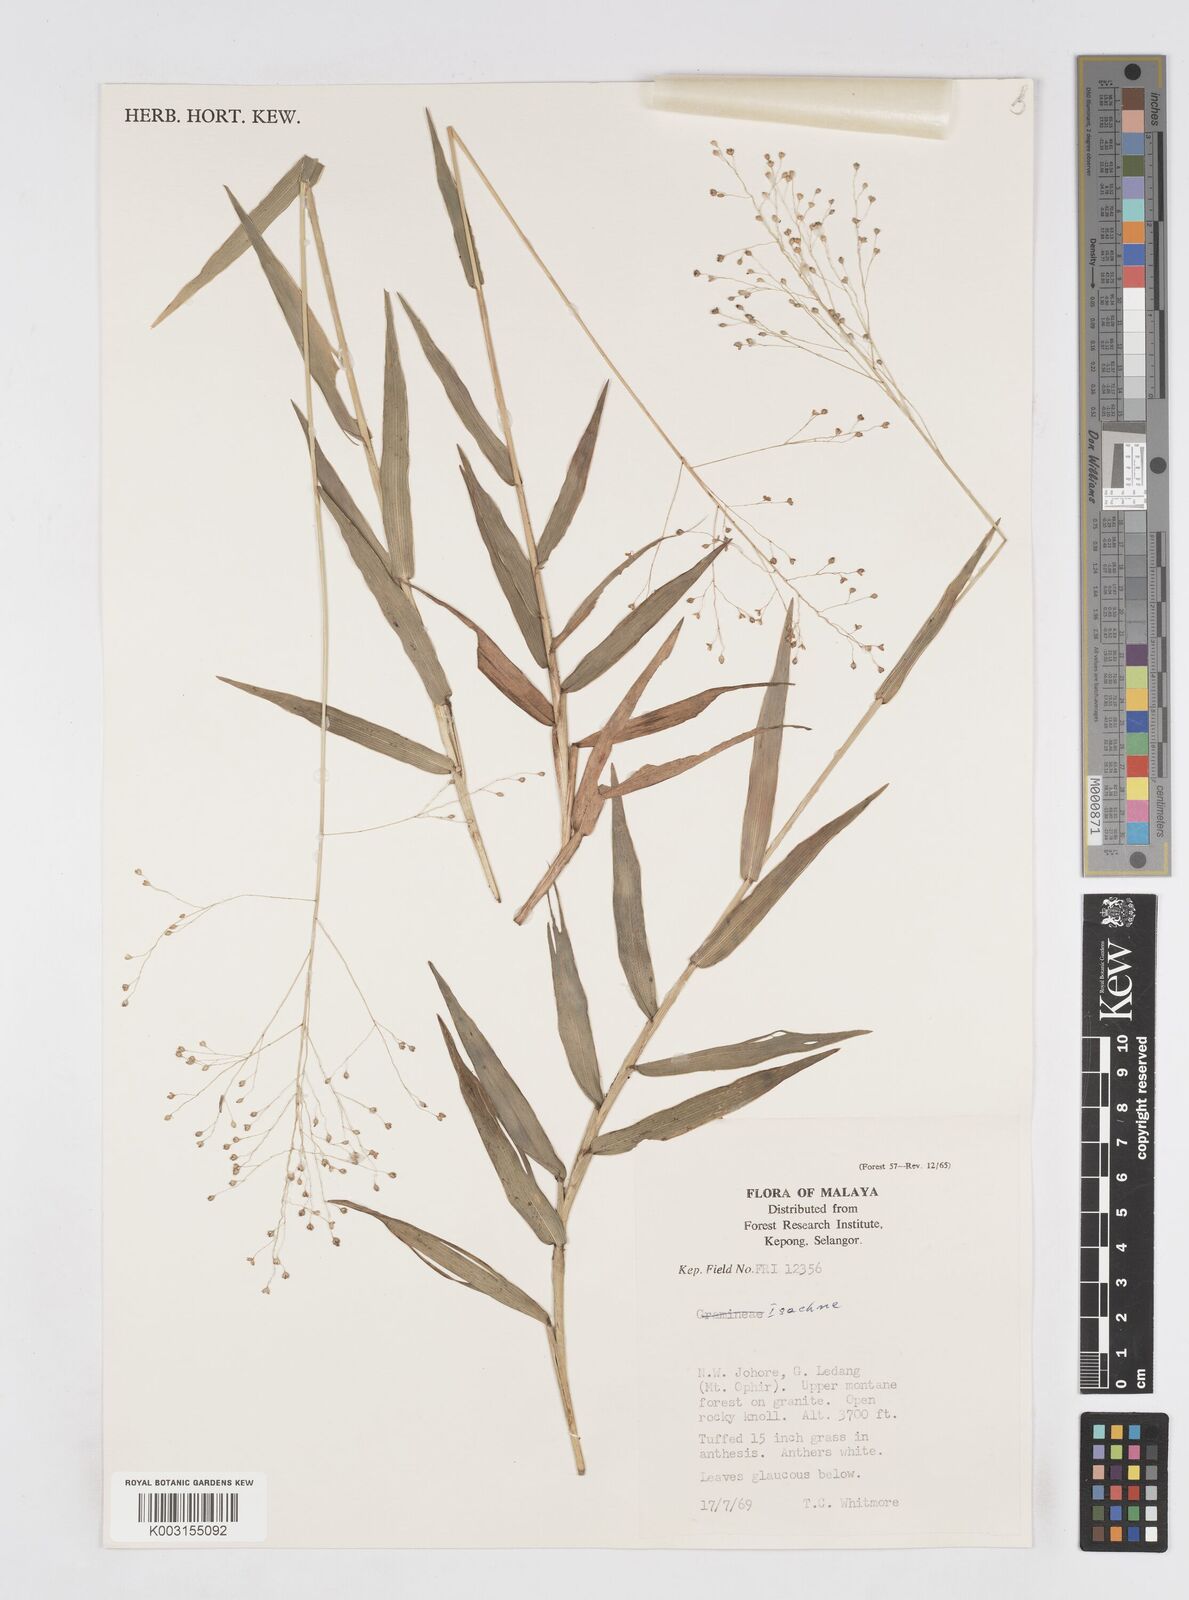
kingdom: Plantae
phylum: Tracheophyta
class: Liliopsida
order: Poales
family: Poaceae
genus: Isachne
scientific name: Isachne
